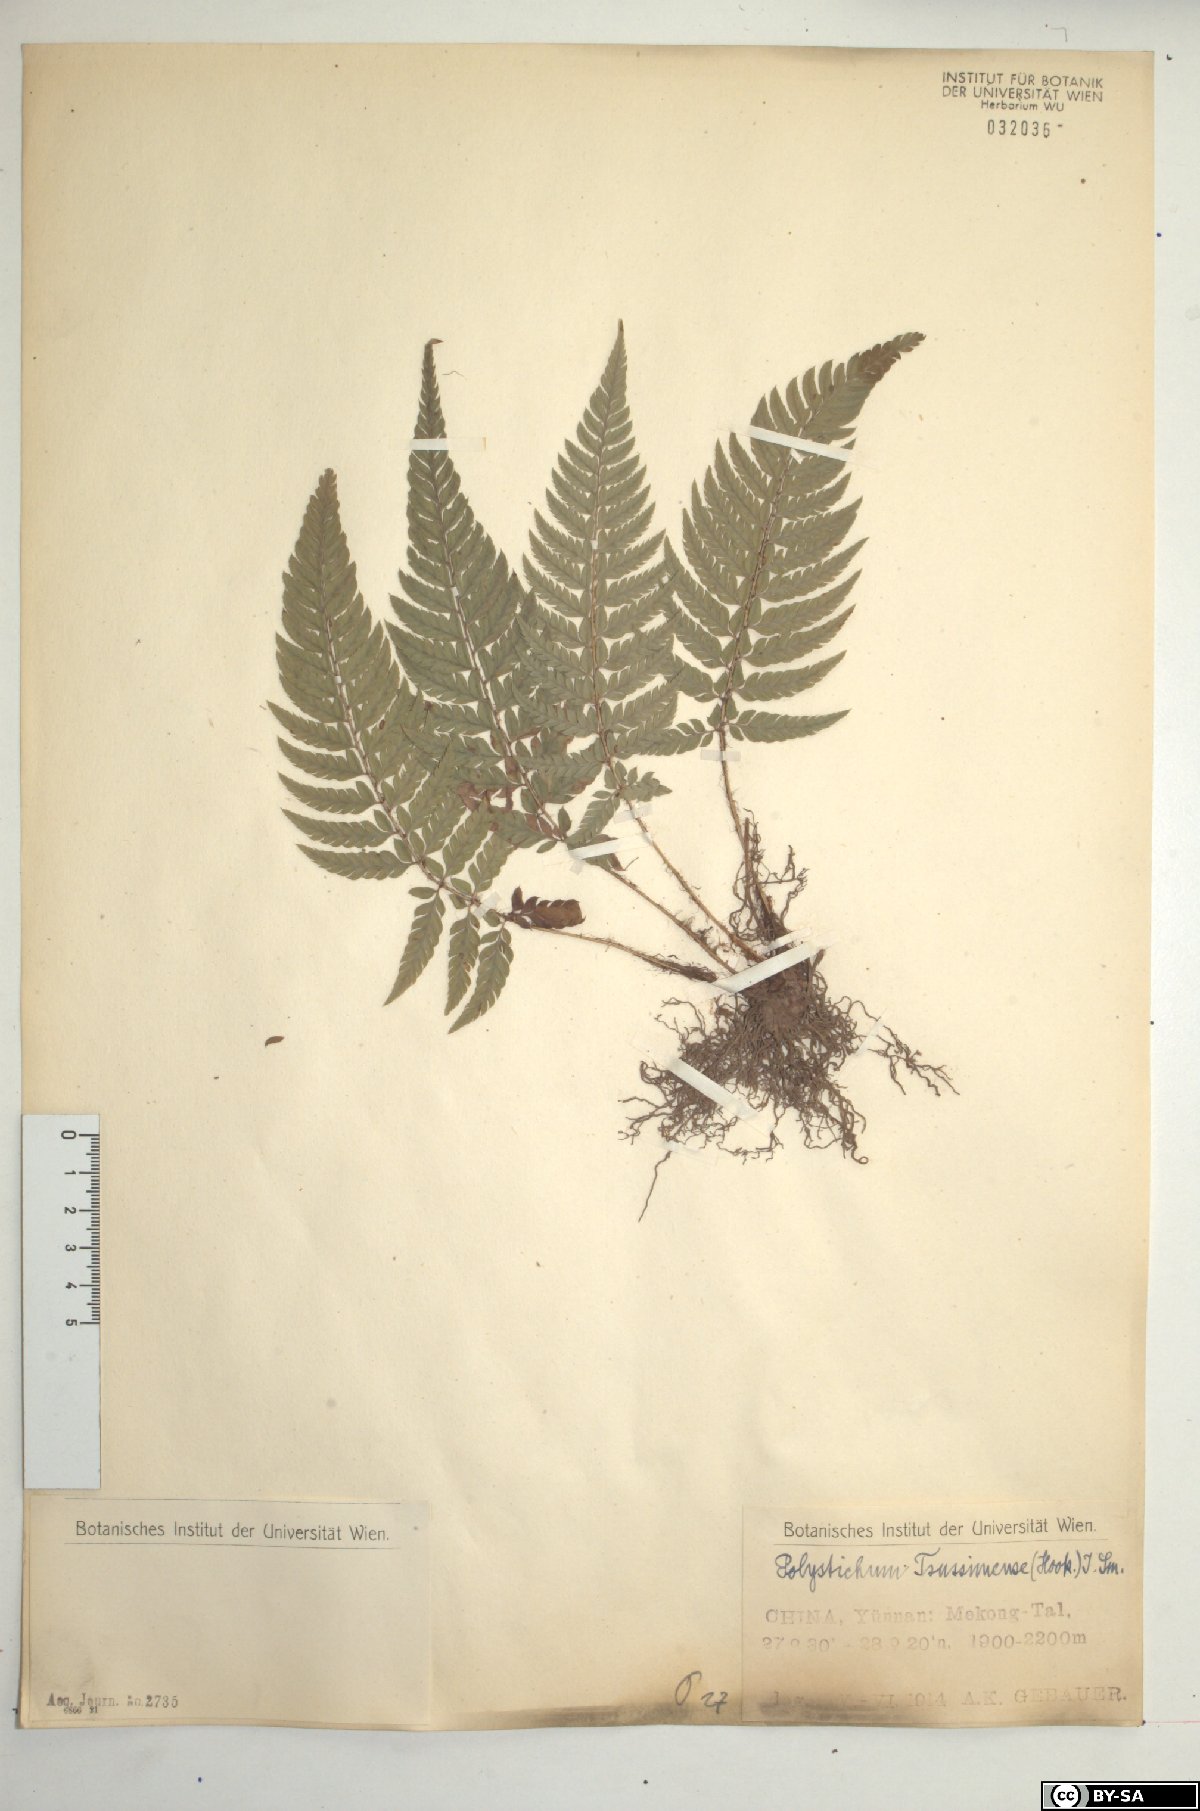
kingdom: Plantae
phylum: Tracheophyta
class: Polypodiopsida
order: Polypodiales
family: Dryopteridaceae
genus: Polystichum
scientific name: Polystichum luctuosum
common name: Korean rockfern
